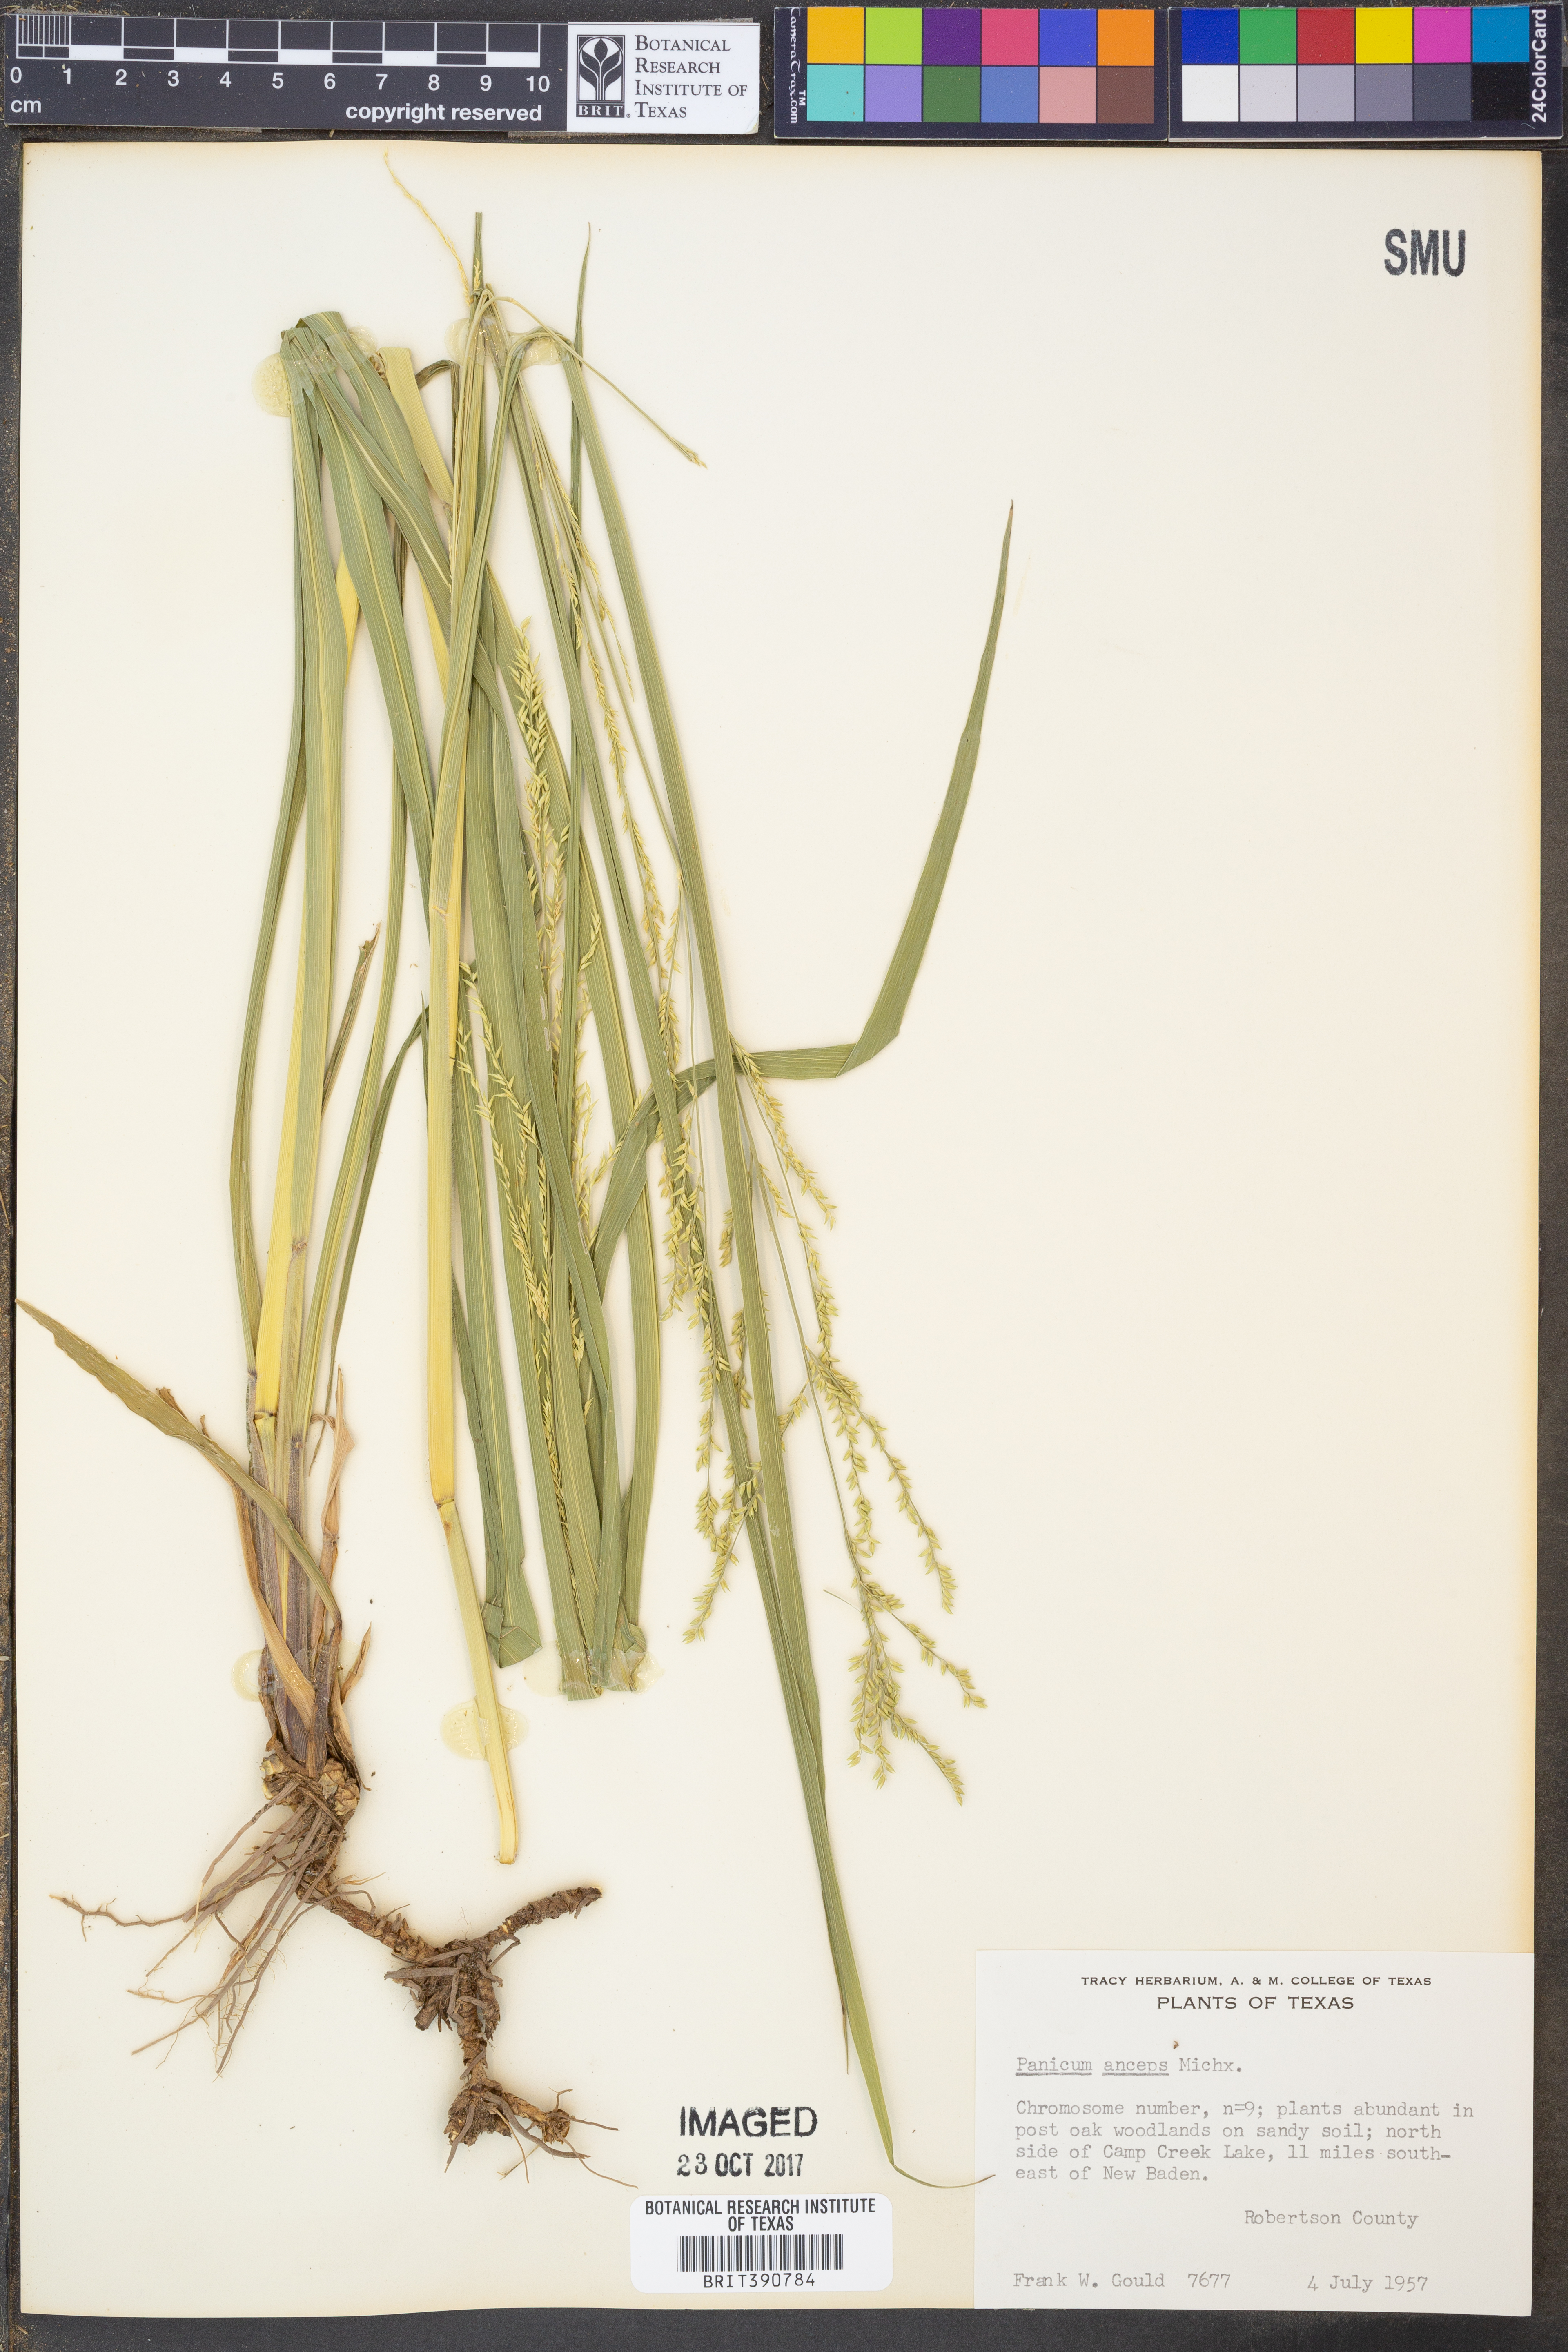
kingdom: Plantae
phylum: Tracheophyta
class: Liliopsida
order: Poales
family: Poaceae
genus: Coleataenia
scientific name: Coleataenia anceps
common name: Beaked panic grass
